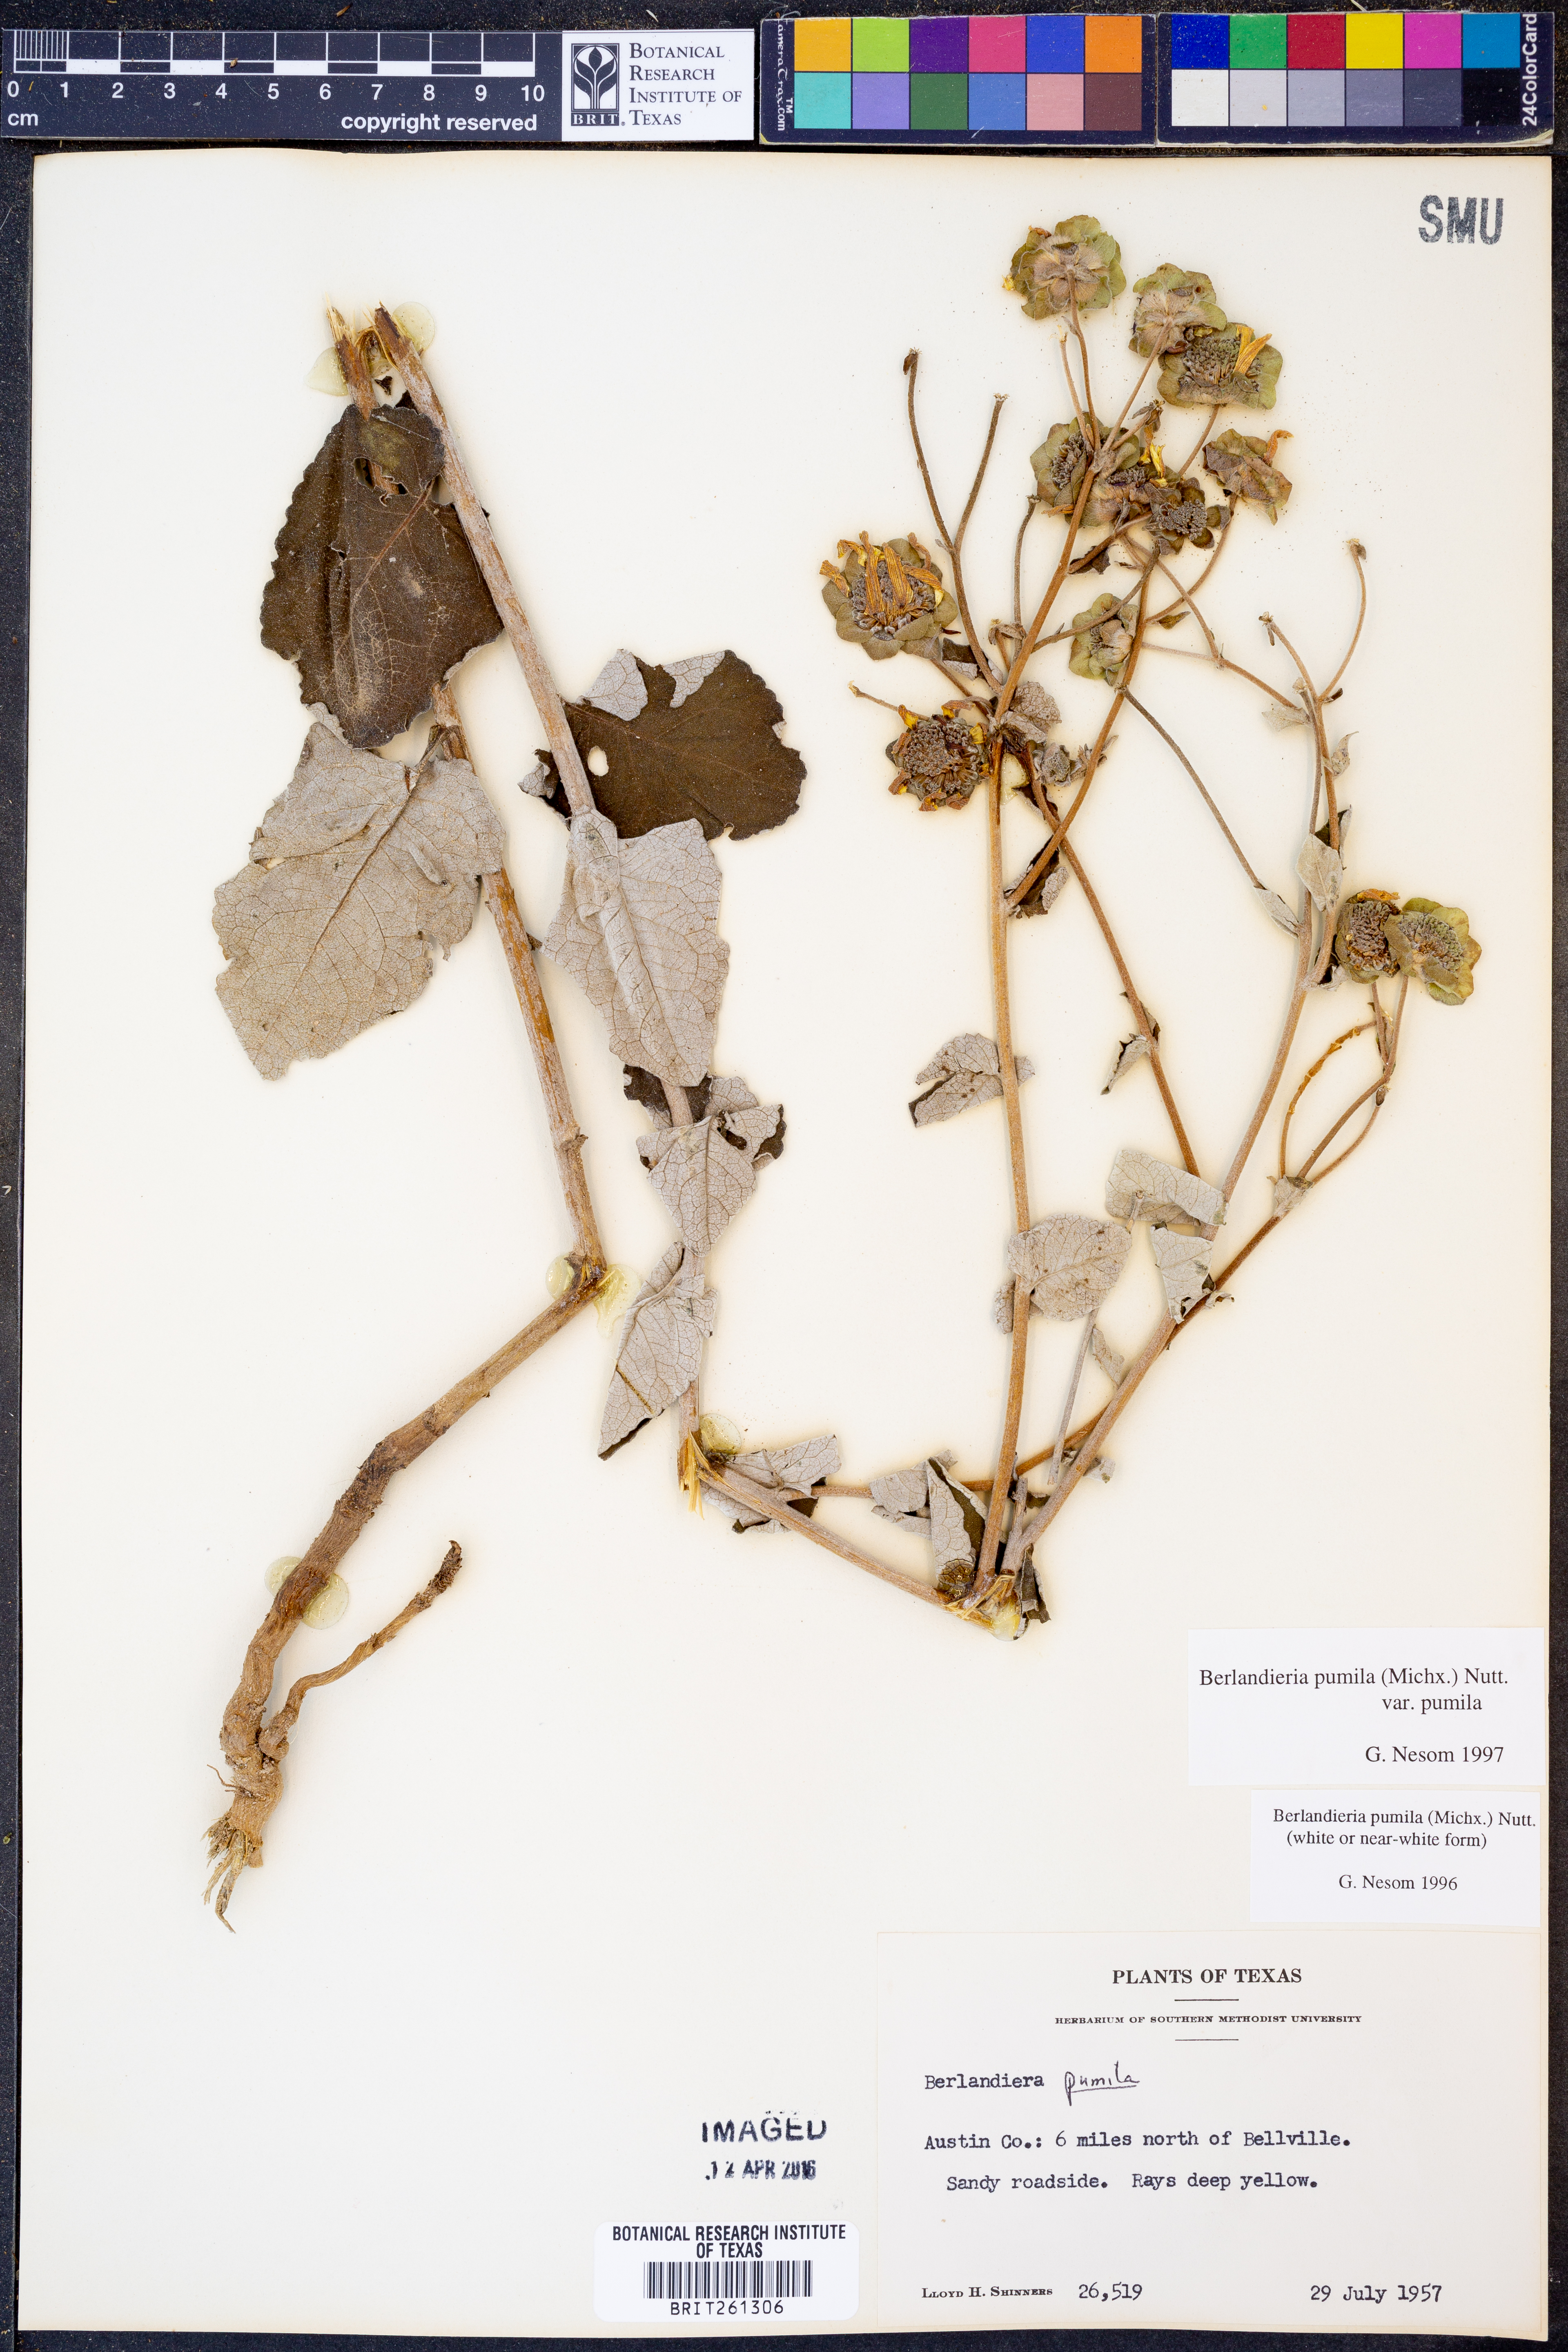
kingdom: Plantae
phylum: Tracheophyta
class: Magnoliopsida
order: Asterales
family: Asteraceae
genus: Berlandiera
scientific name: Berlandiera pumila
